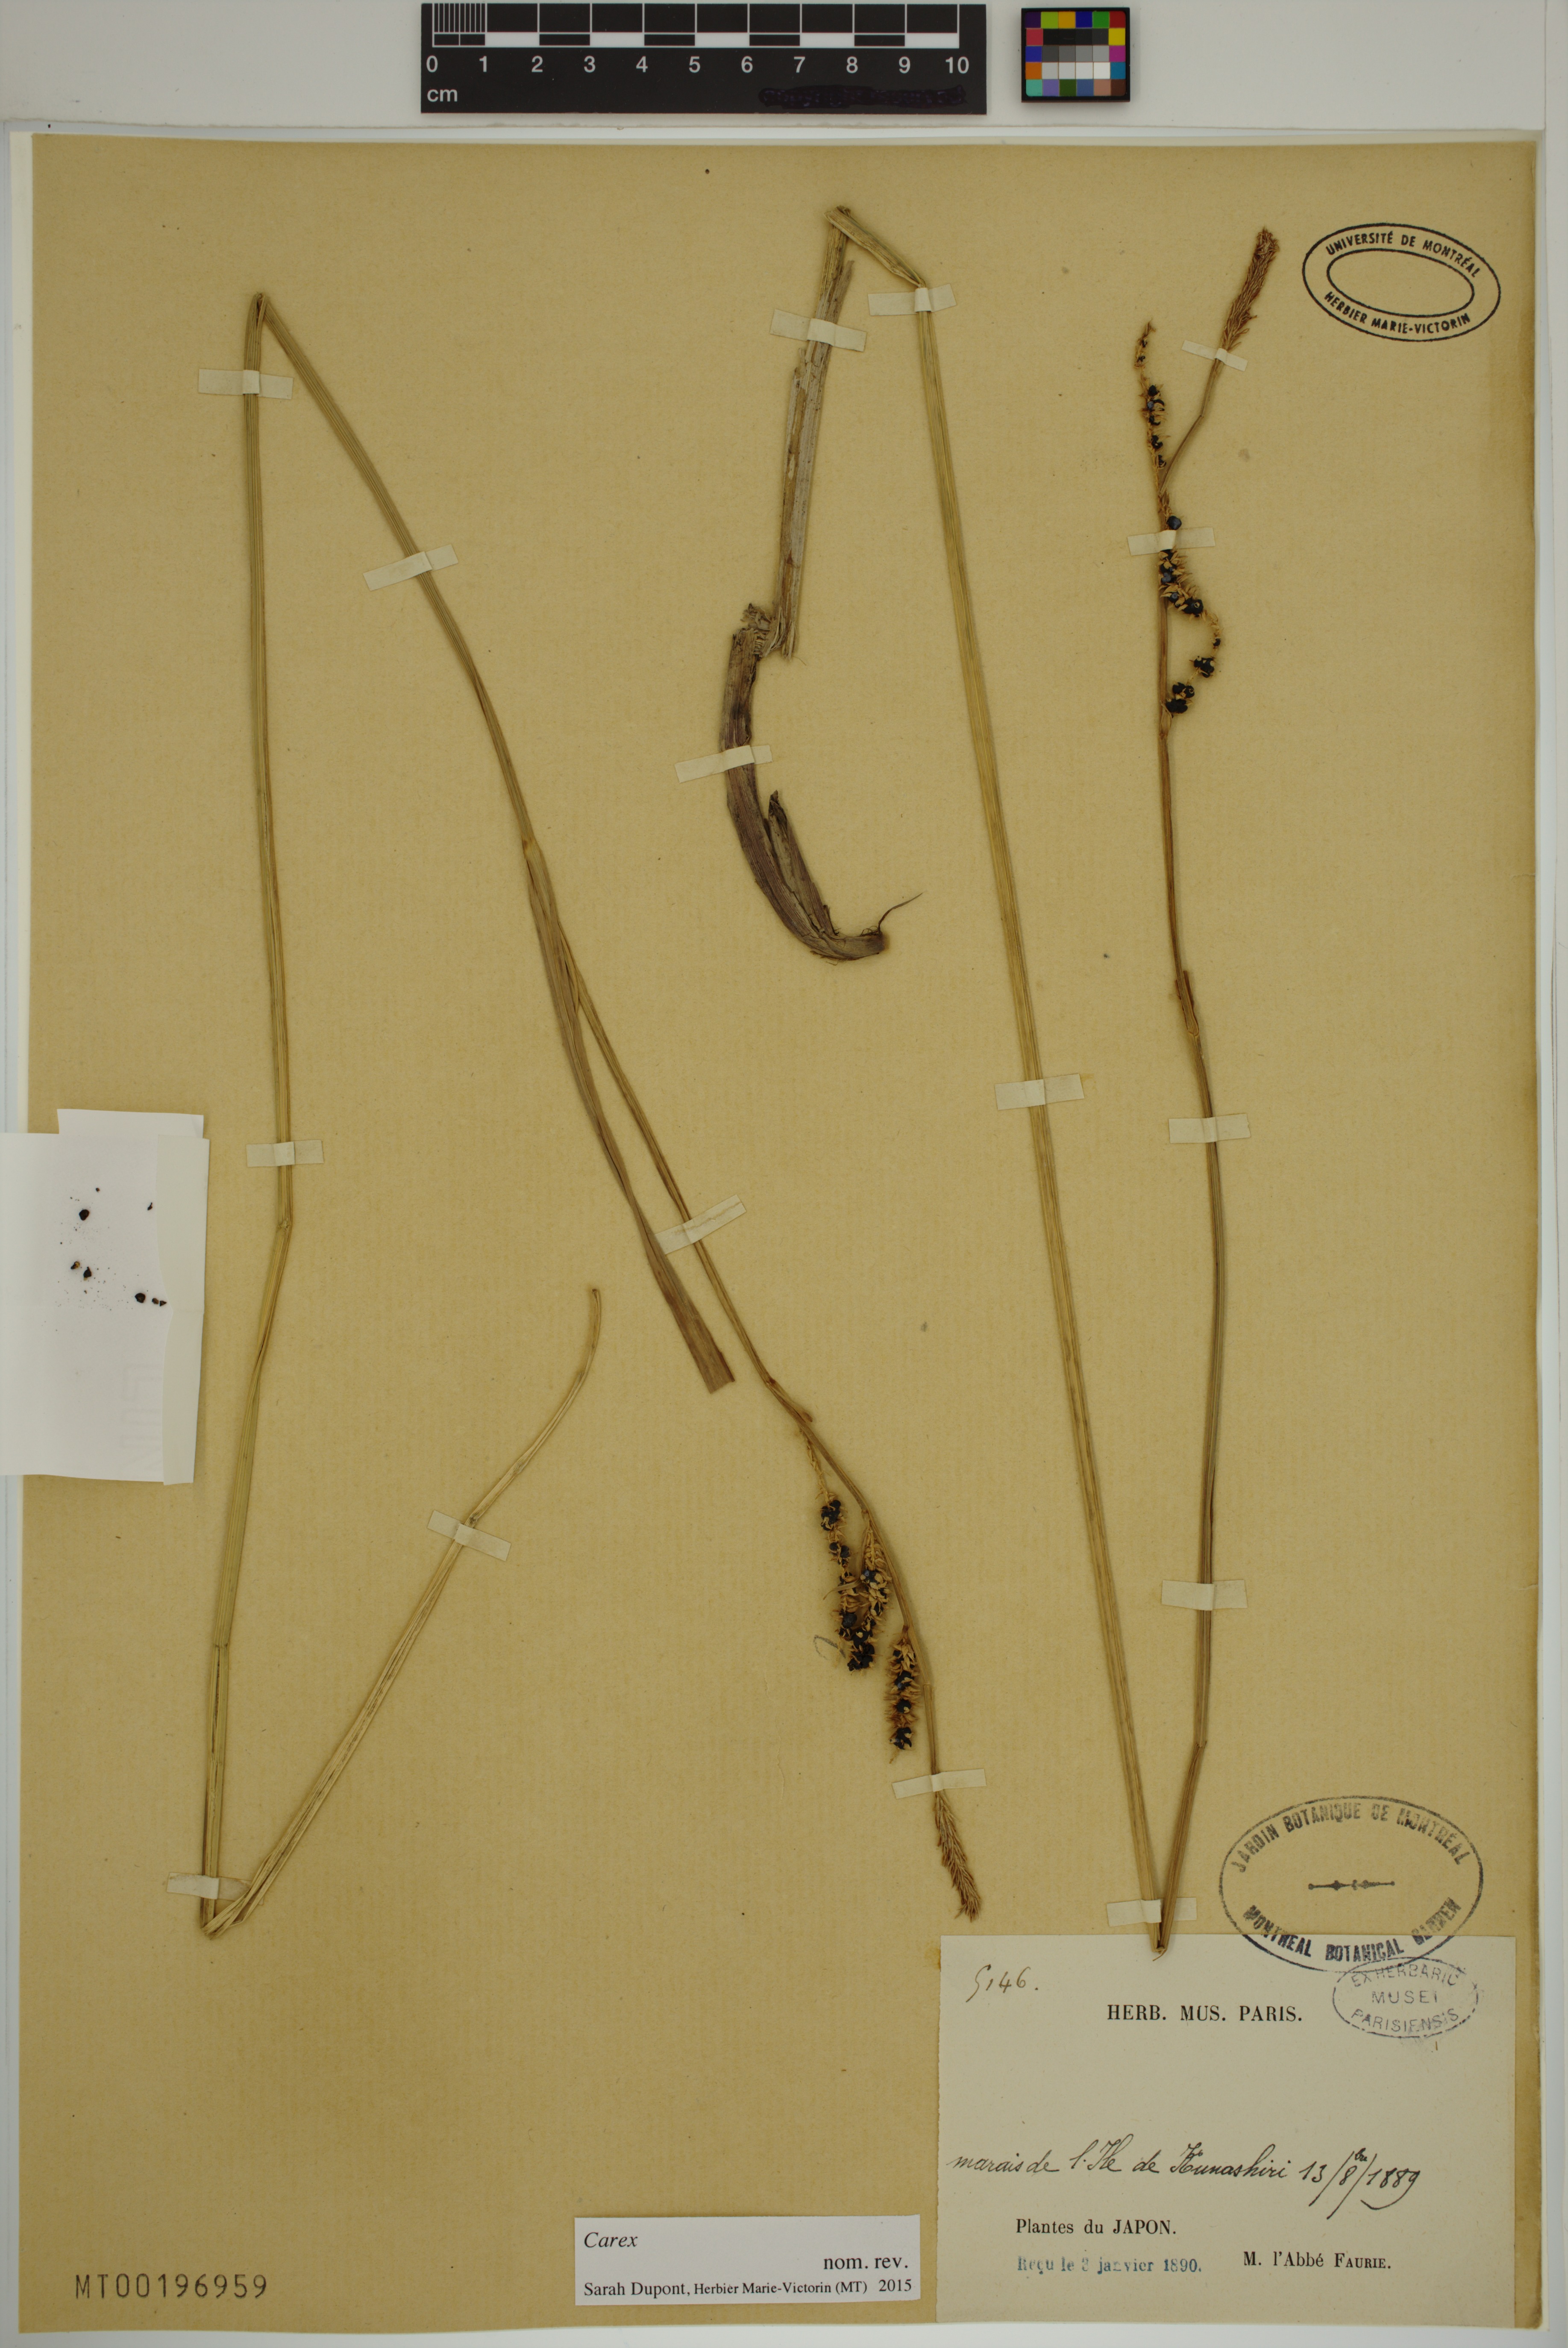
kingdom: Plantae
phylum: Tracheophyta
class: Liliopsida
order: Poales
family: Cyperaceae
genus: Carex
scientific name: Carex
